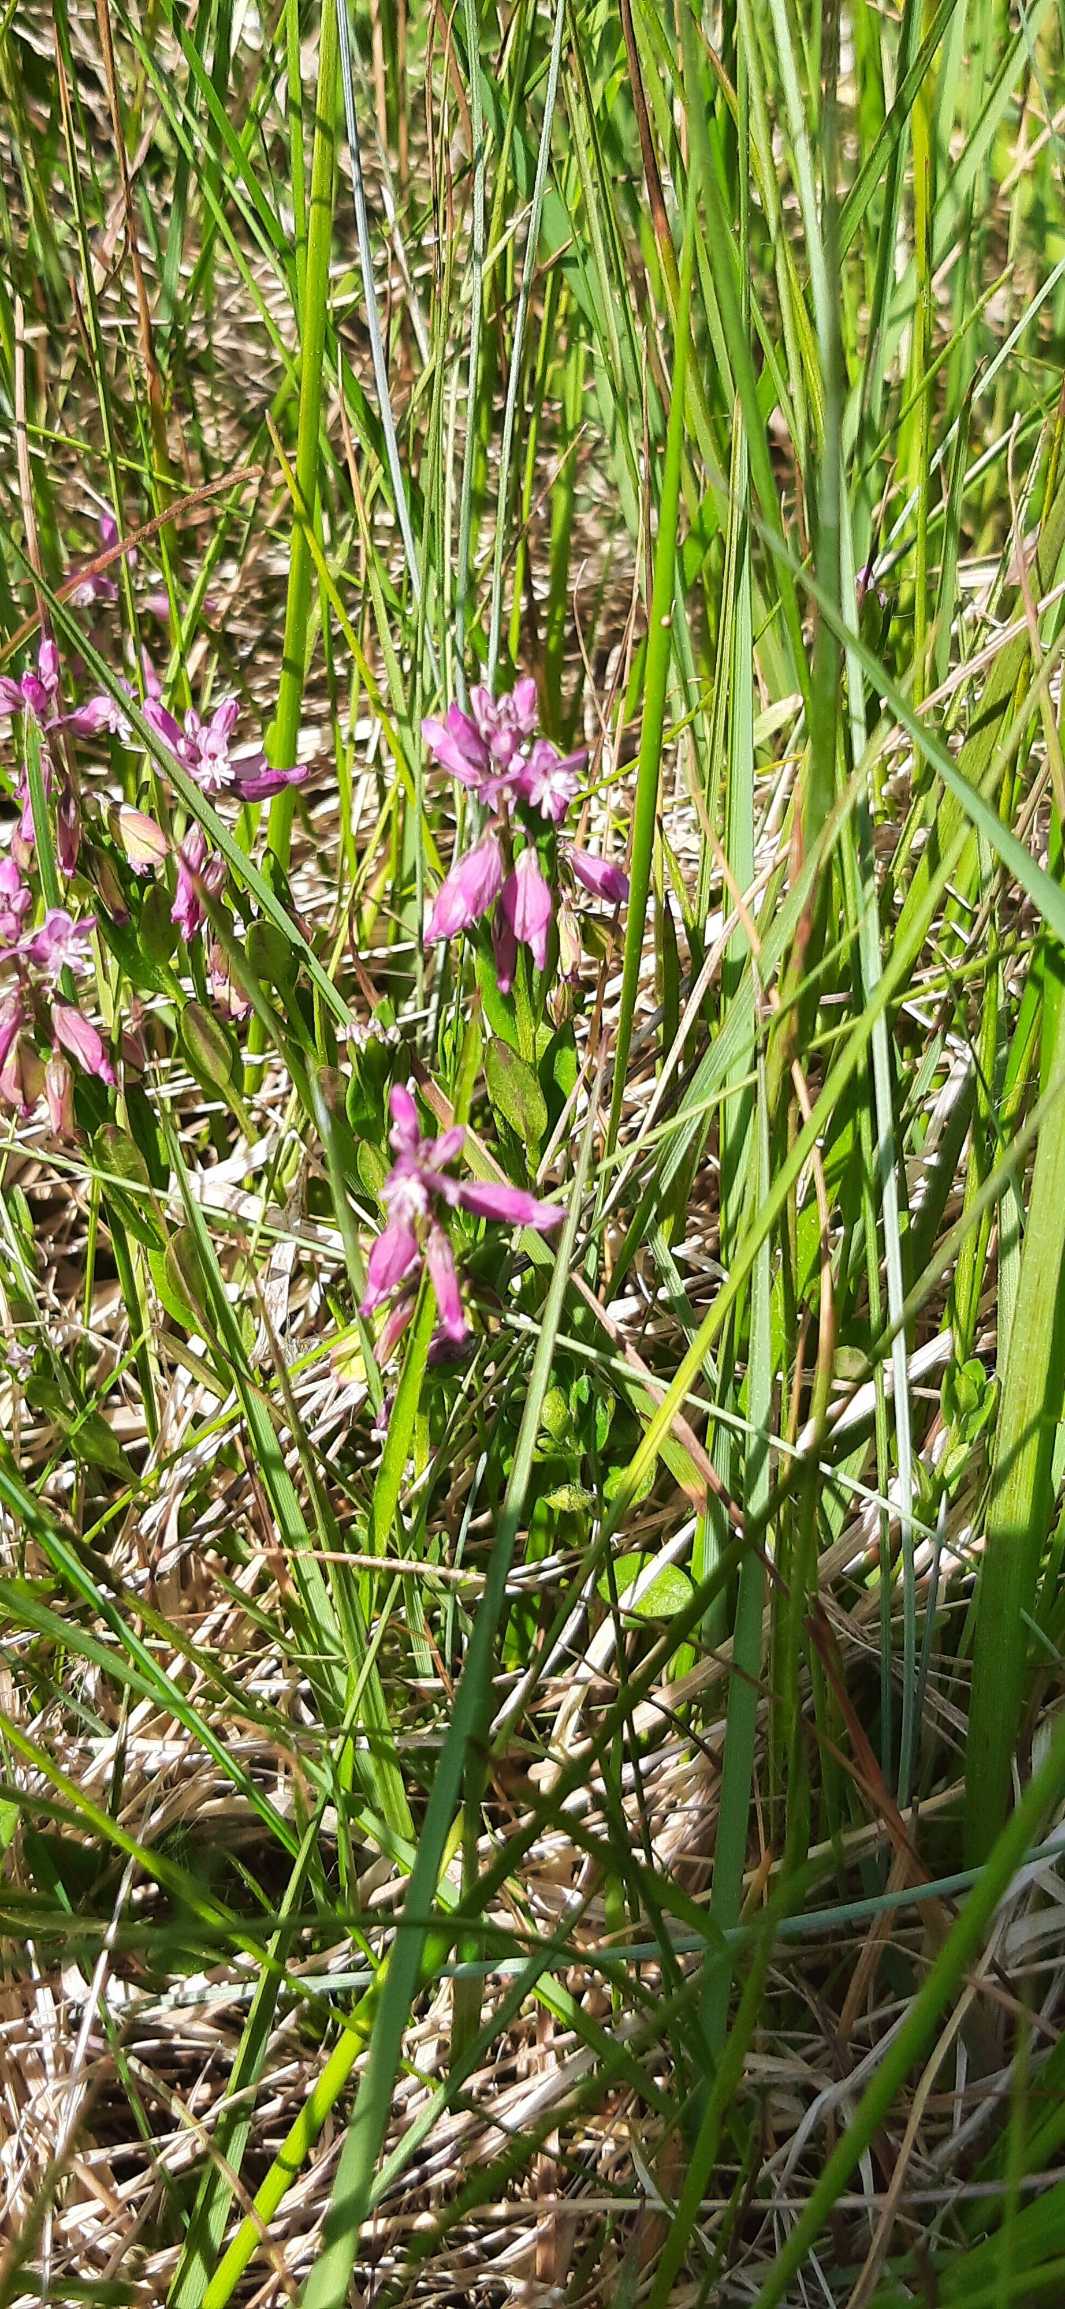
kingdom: Plantae
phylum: Tracheophyta
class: Magnoliopsida
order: Fabales
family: Polygalaceae
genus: Polygala
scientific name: Polygala vulgaris
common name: Almindelig mælkeurt
